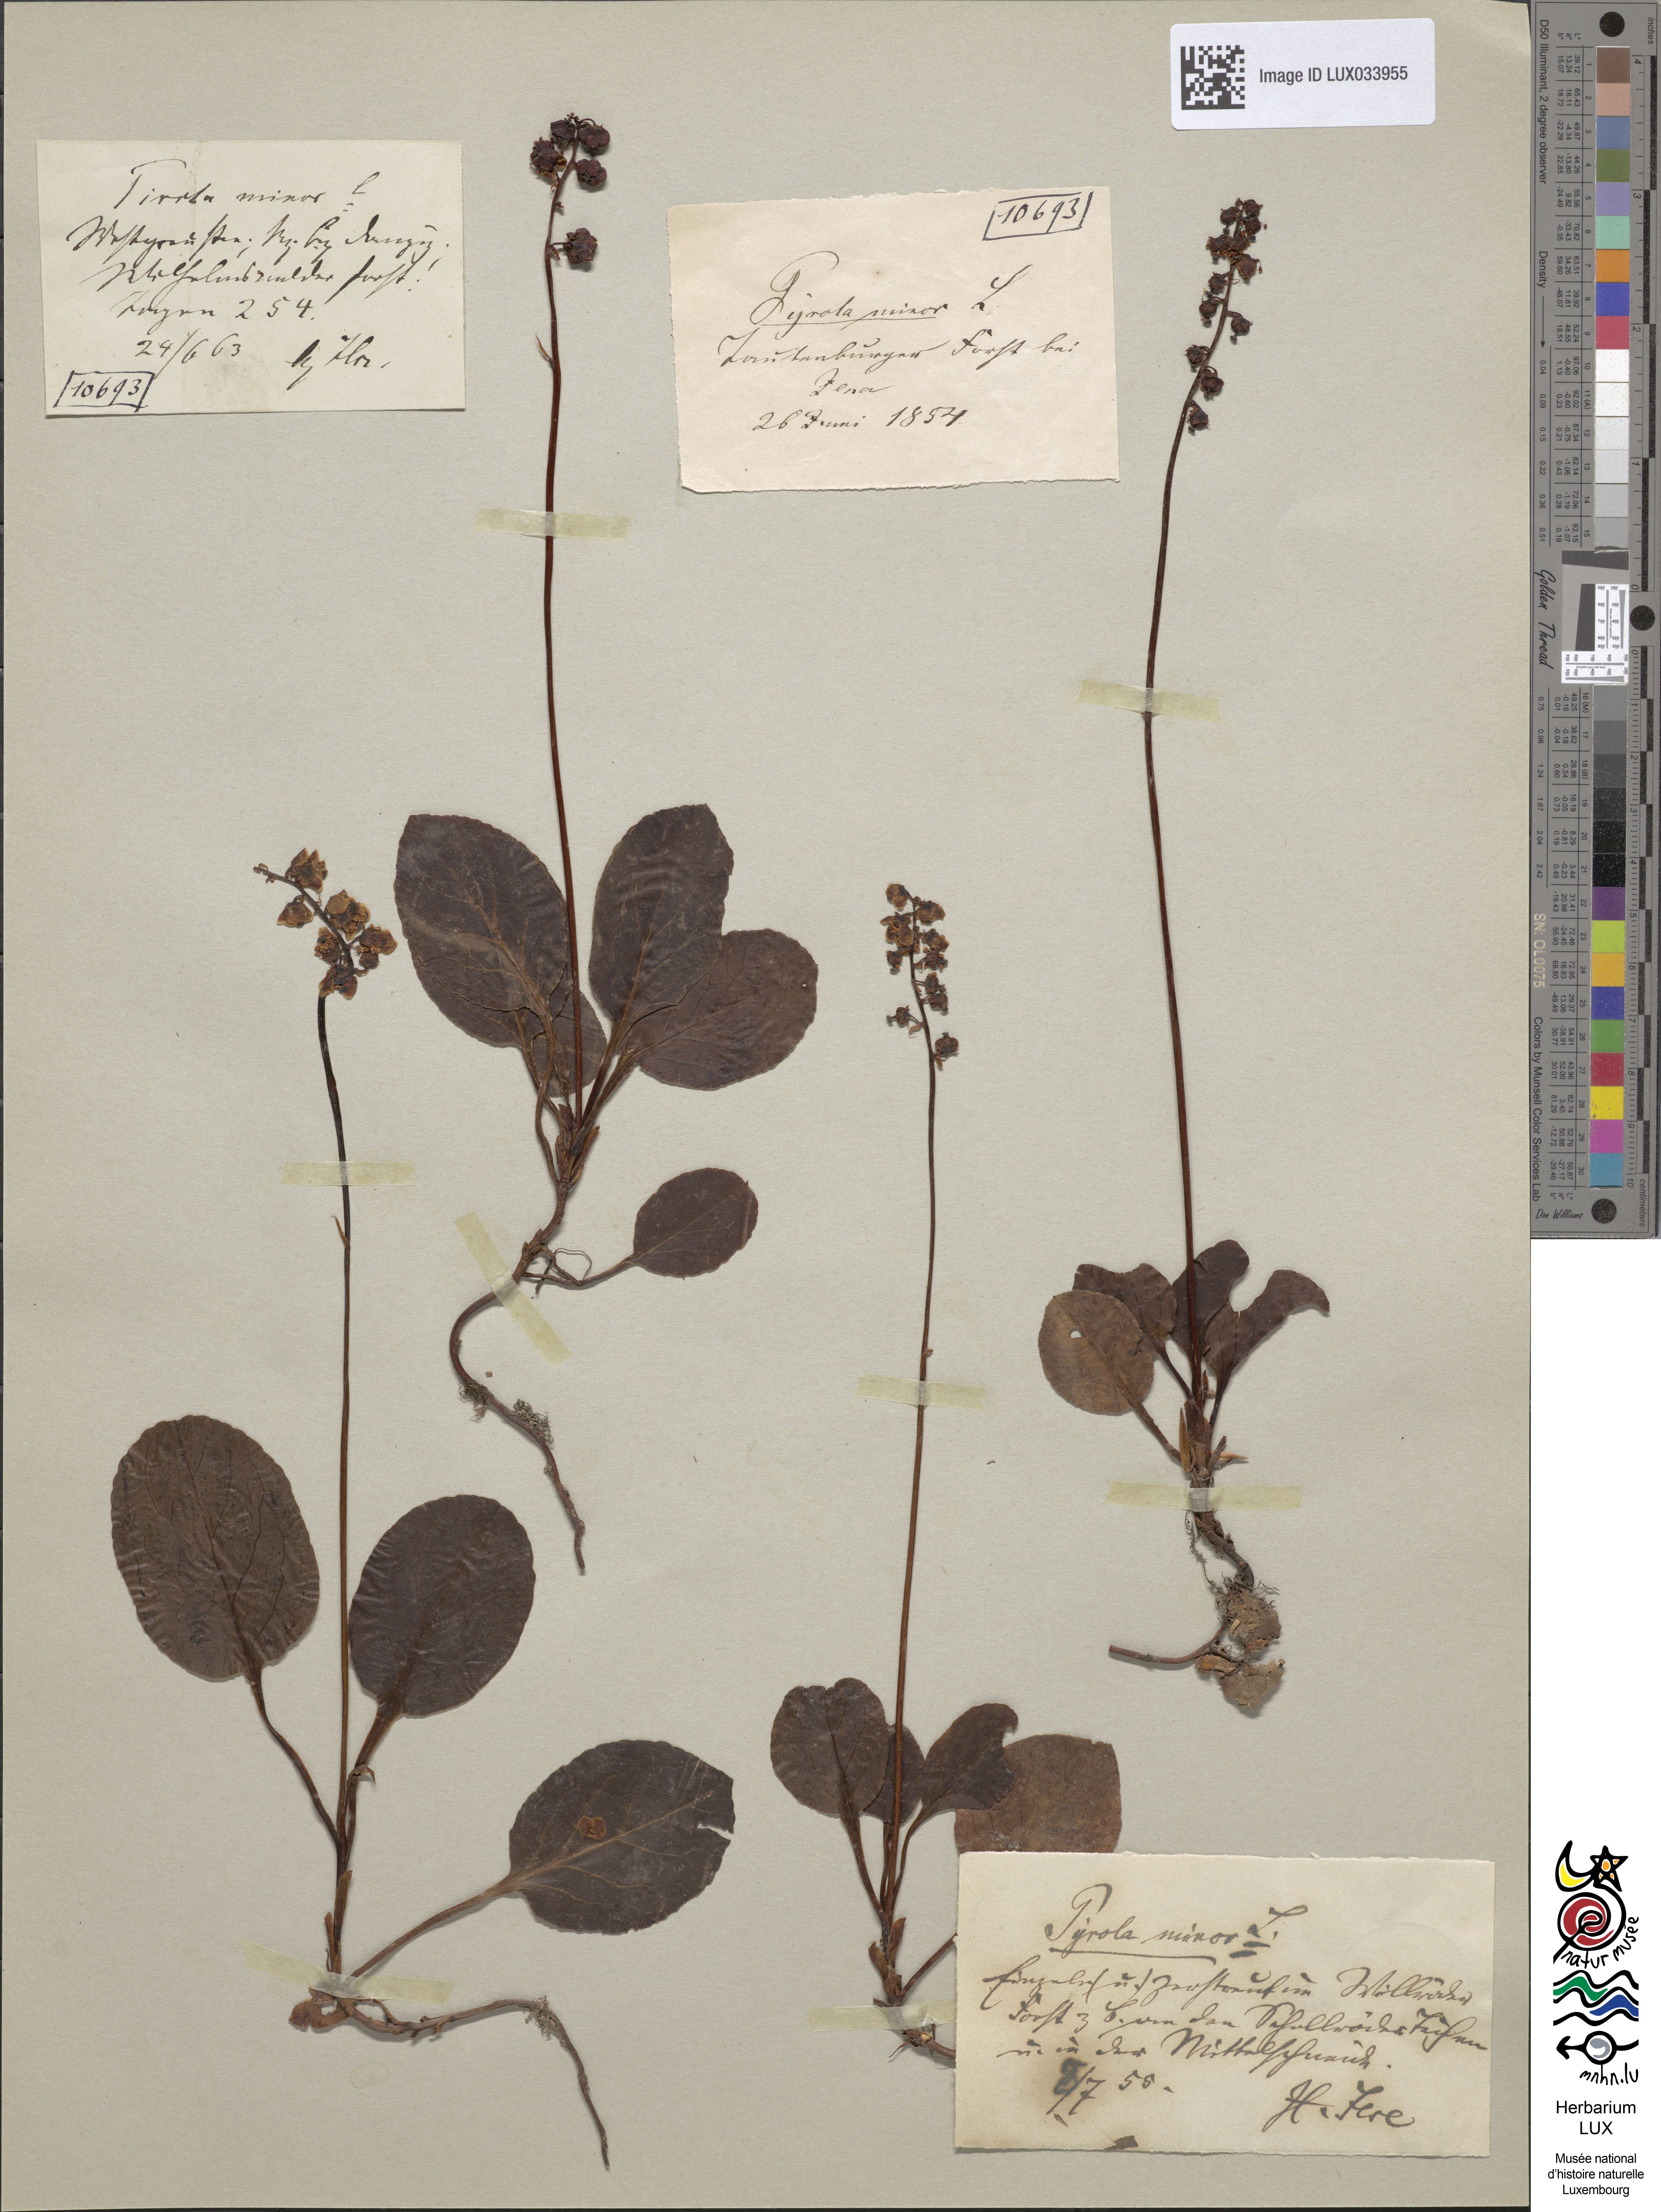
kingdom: Plantae
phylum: Tracheophyta
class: Magnoliopsida
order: Ericales
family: Ericaceae
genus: Pyrola
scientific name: Pyrola minor
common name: Common wintergreen
